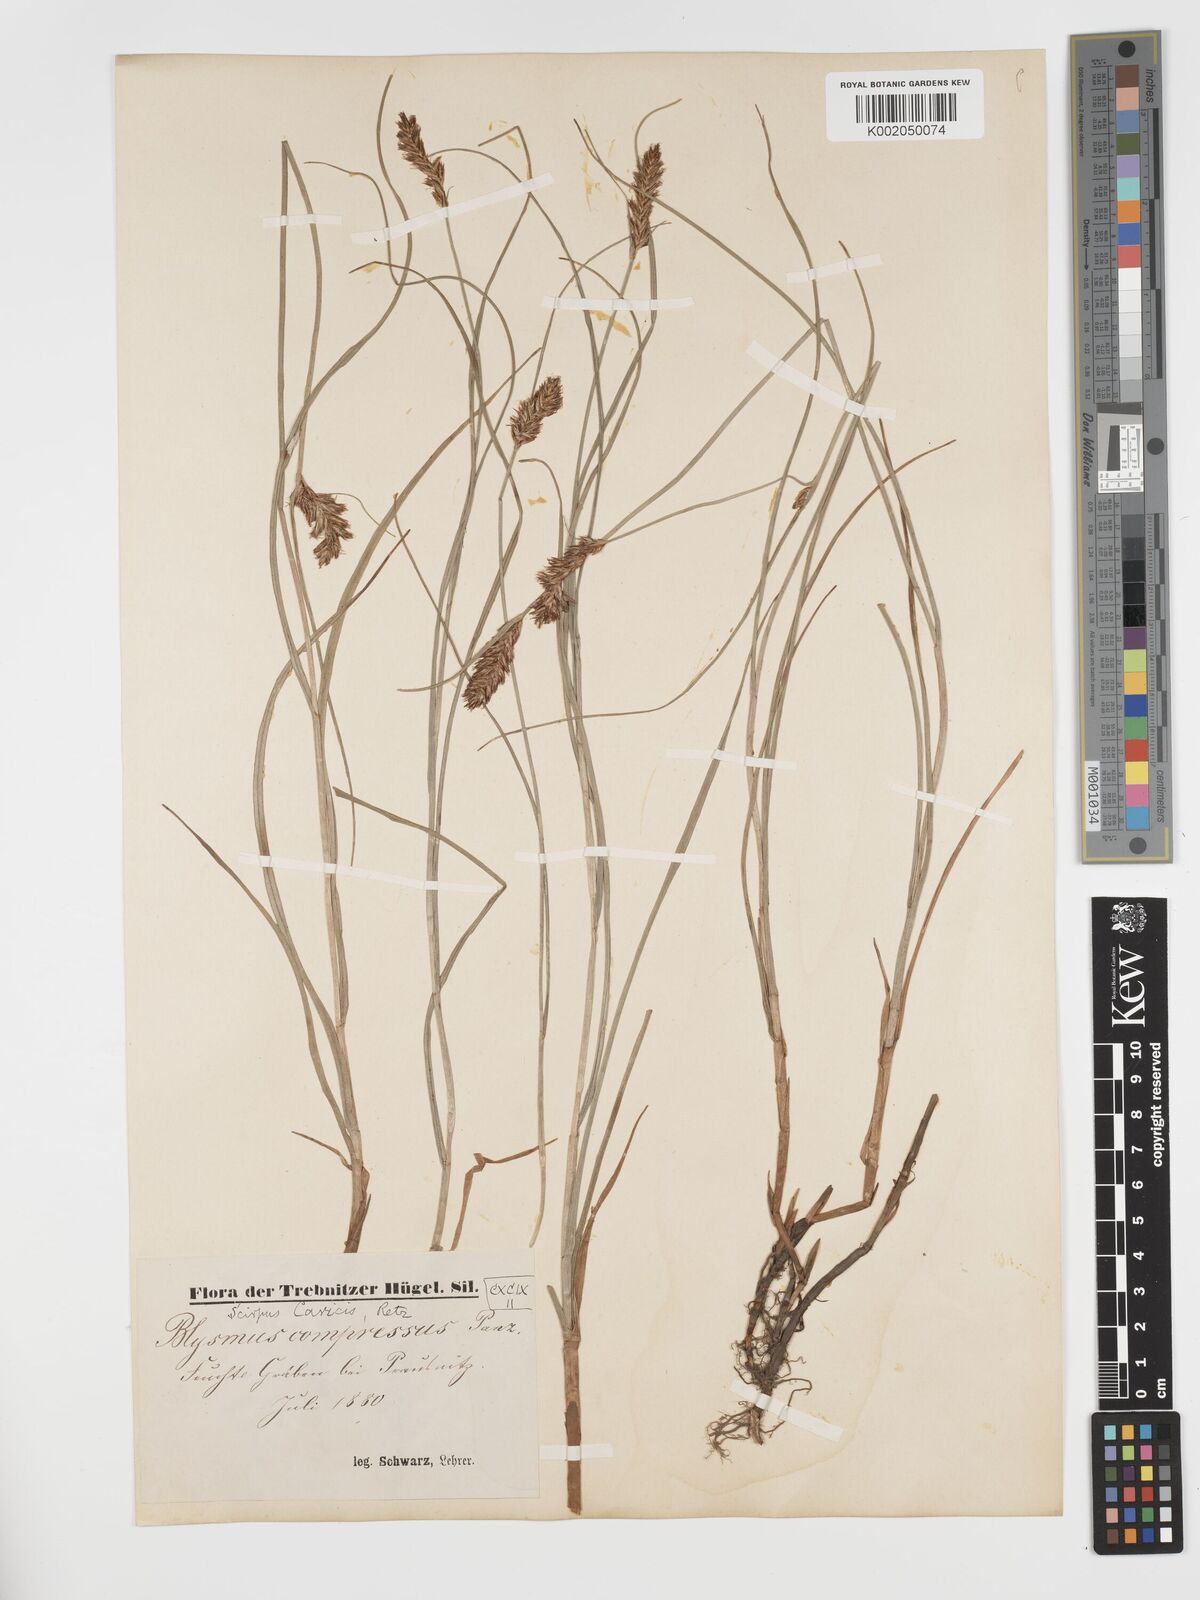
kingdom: Plantae
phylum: Tracheophyta
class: Liliopsida
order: Poales
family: Cyperaceae
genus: Blysmus
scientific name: Blysmus compressus
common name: Flat-sedge
